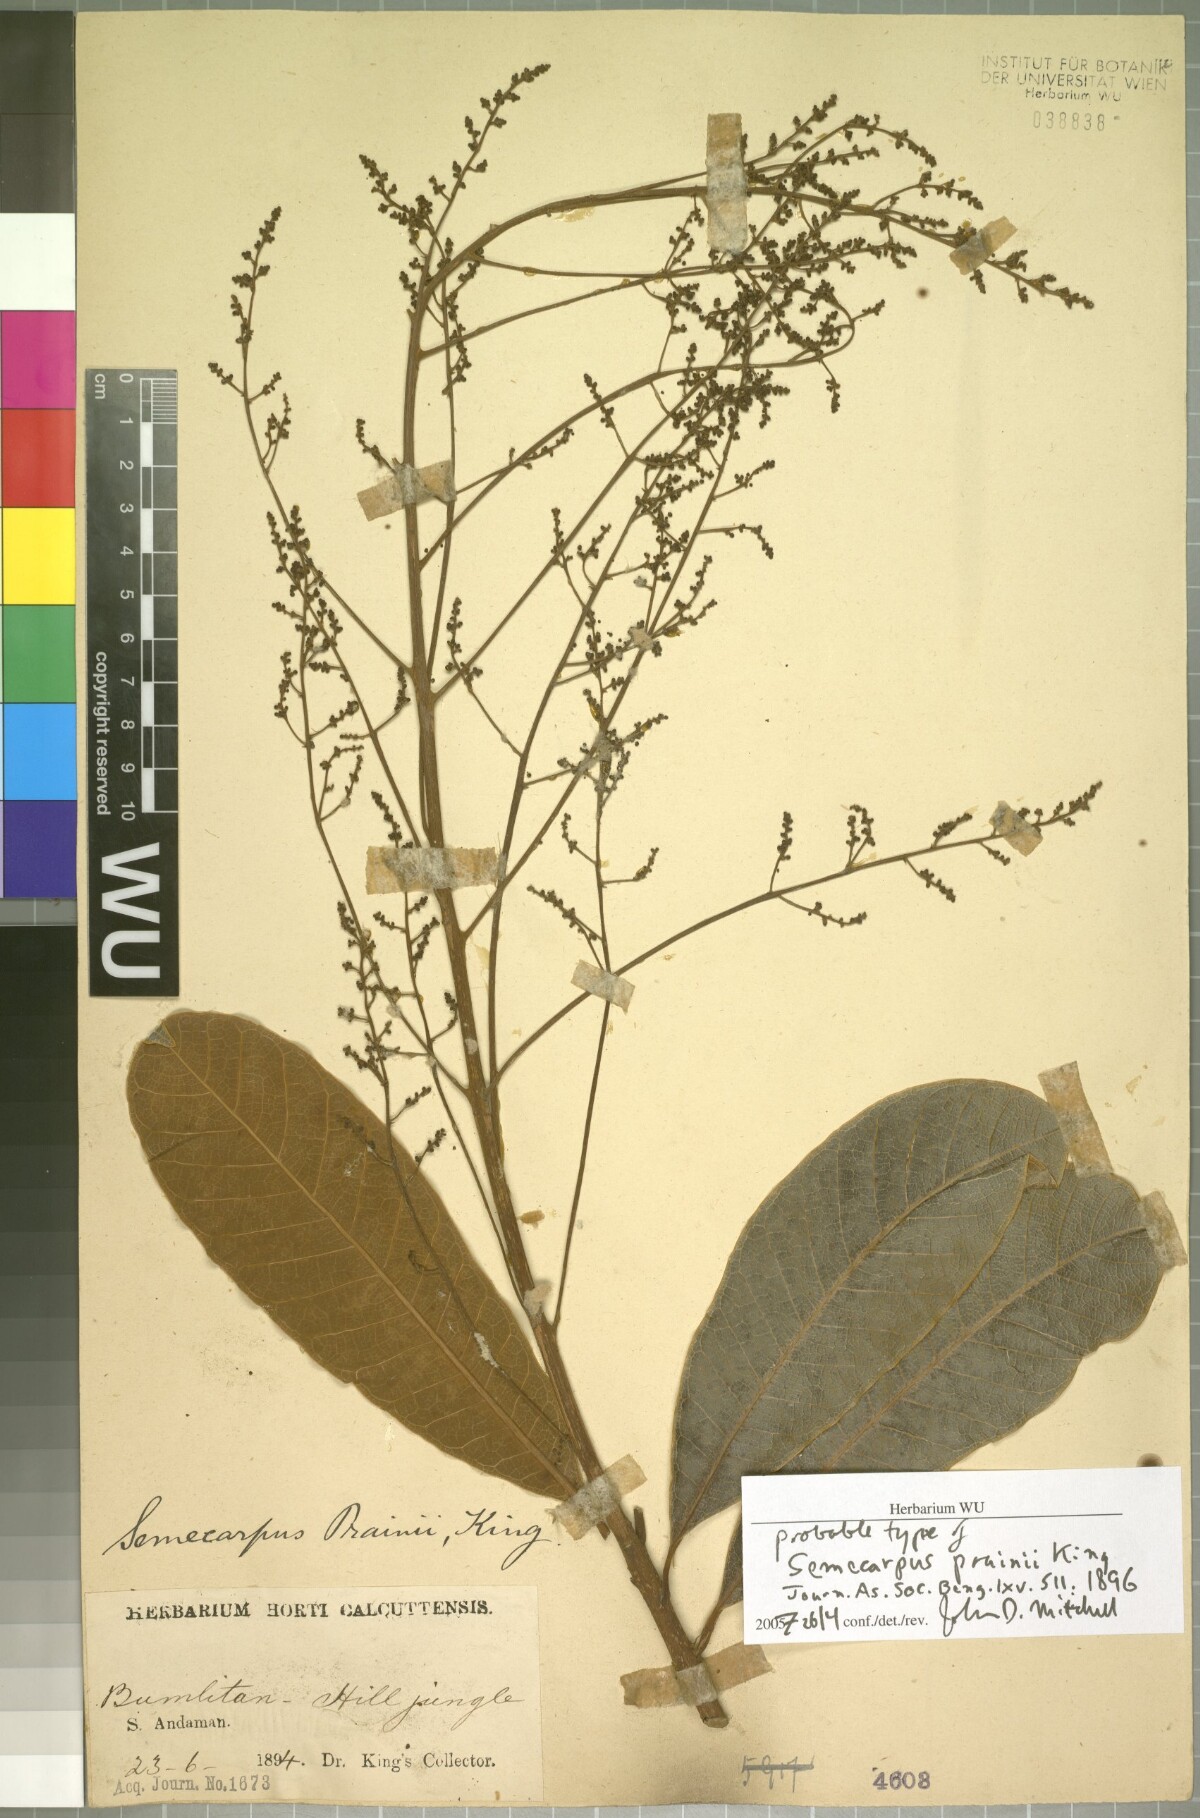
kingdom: Plantae
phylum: Tracheophyta
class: Magnoliopsida
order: Sapindales
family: Anacardiaceae
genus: Semecarpus
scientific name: Semecarpus prainii
